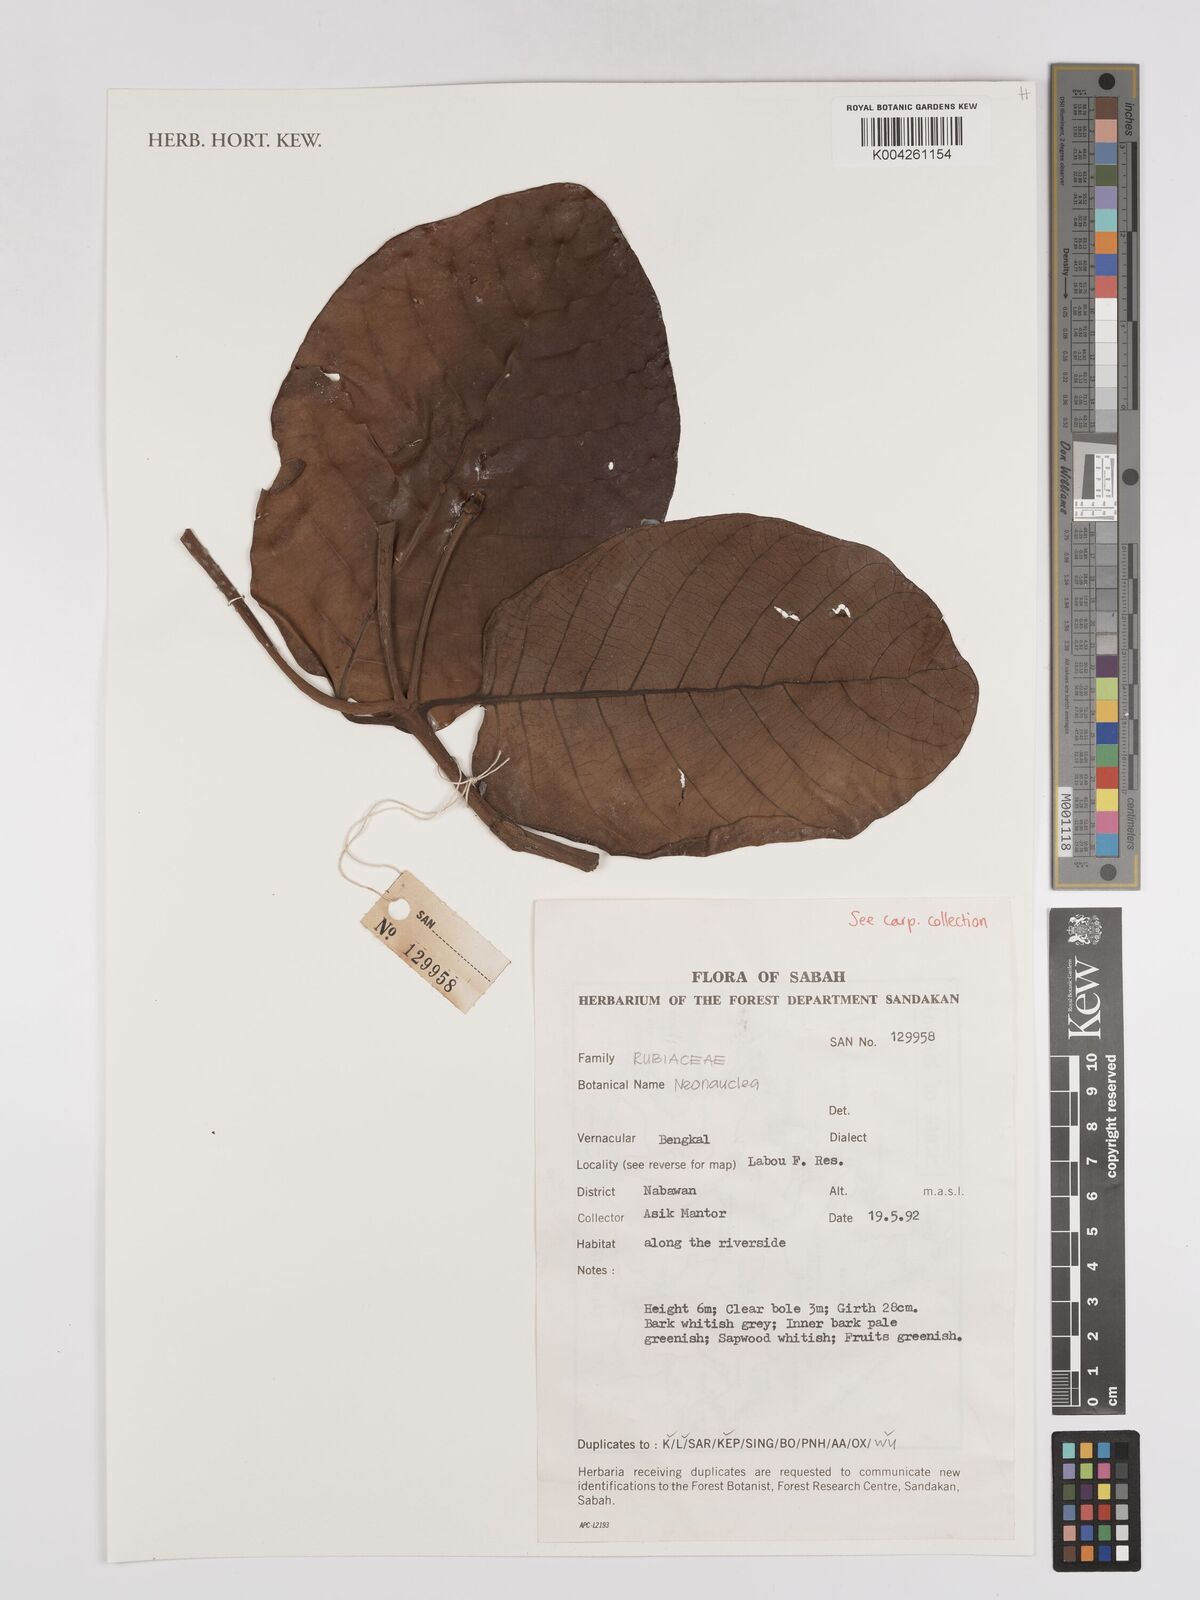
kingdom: Plantae
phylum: Tracheophyta
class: Magnoliopsida
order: Gentianales
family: Rubiaceae
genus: Neonauclea
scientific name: Neonauclea
